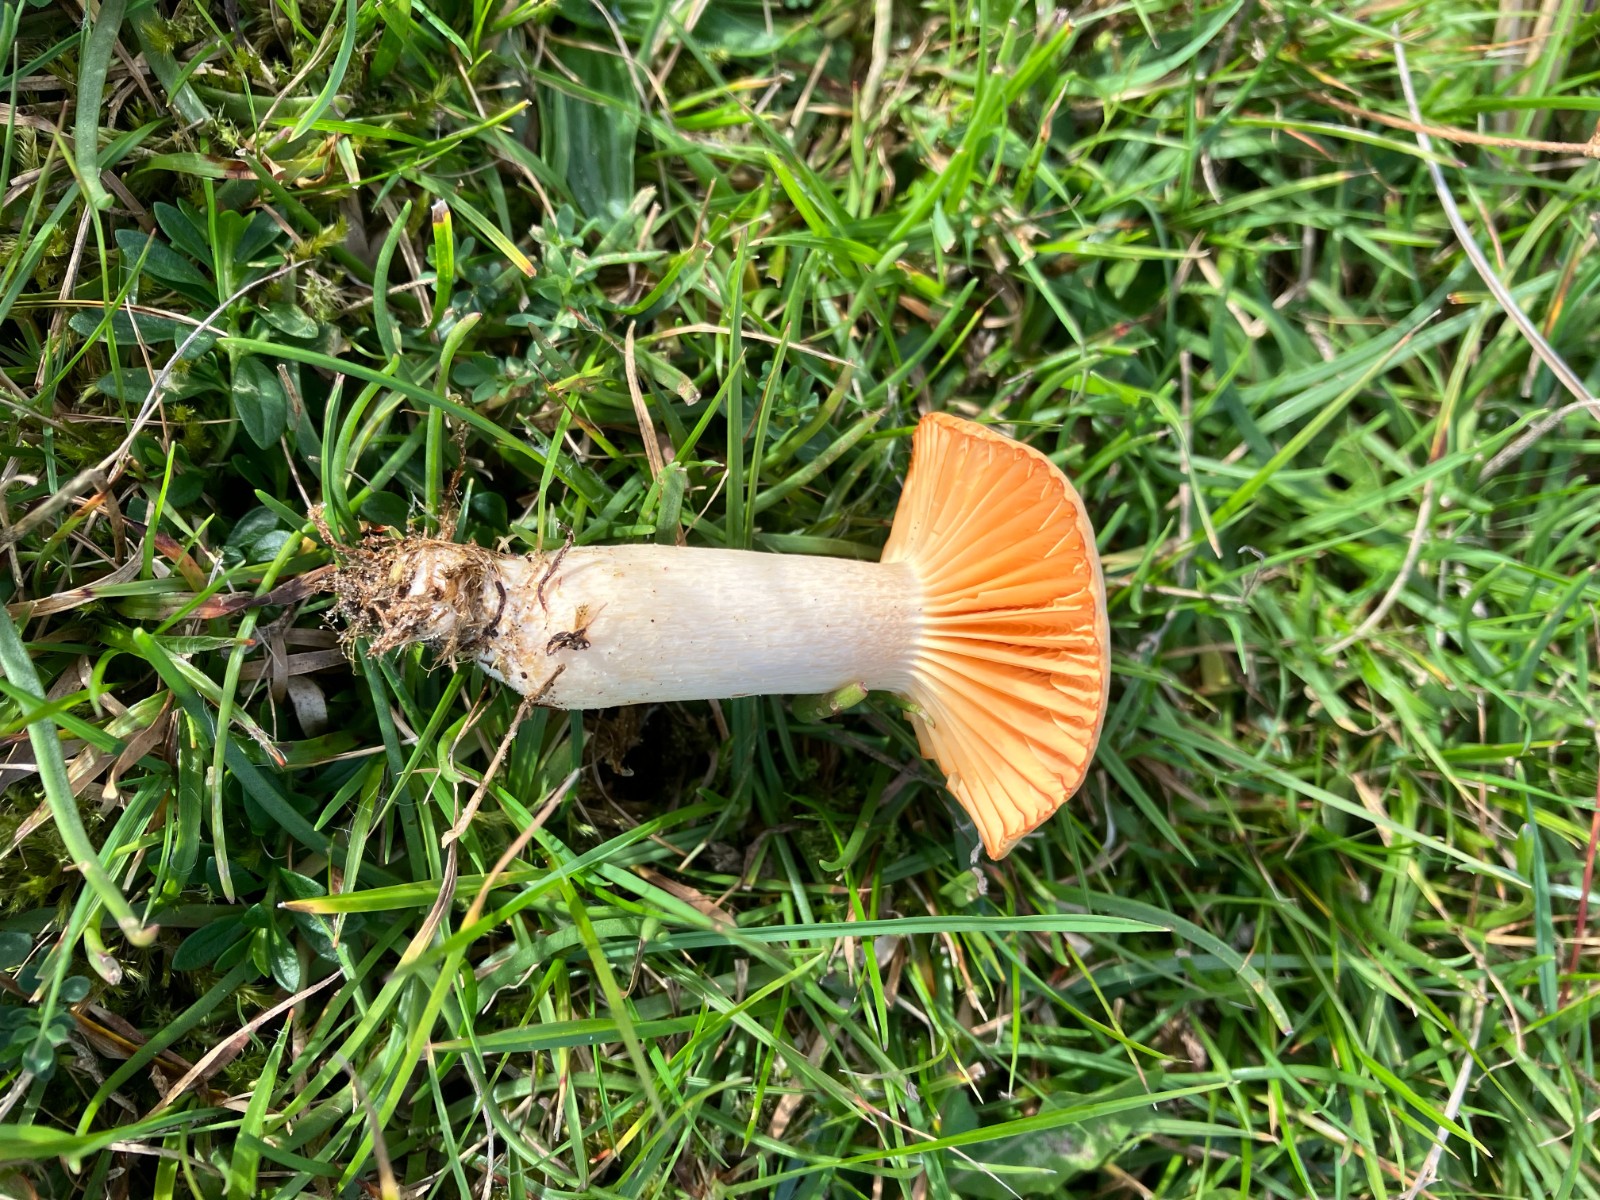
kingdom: Fungi
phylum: Basidiomycota
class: Agaricomycetes
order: Agaricales
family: Hygrophoraceae
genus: Cuphophyllus
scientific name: Cuphophyllus pratensis
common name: eng-vokshat
